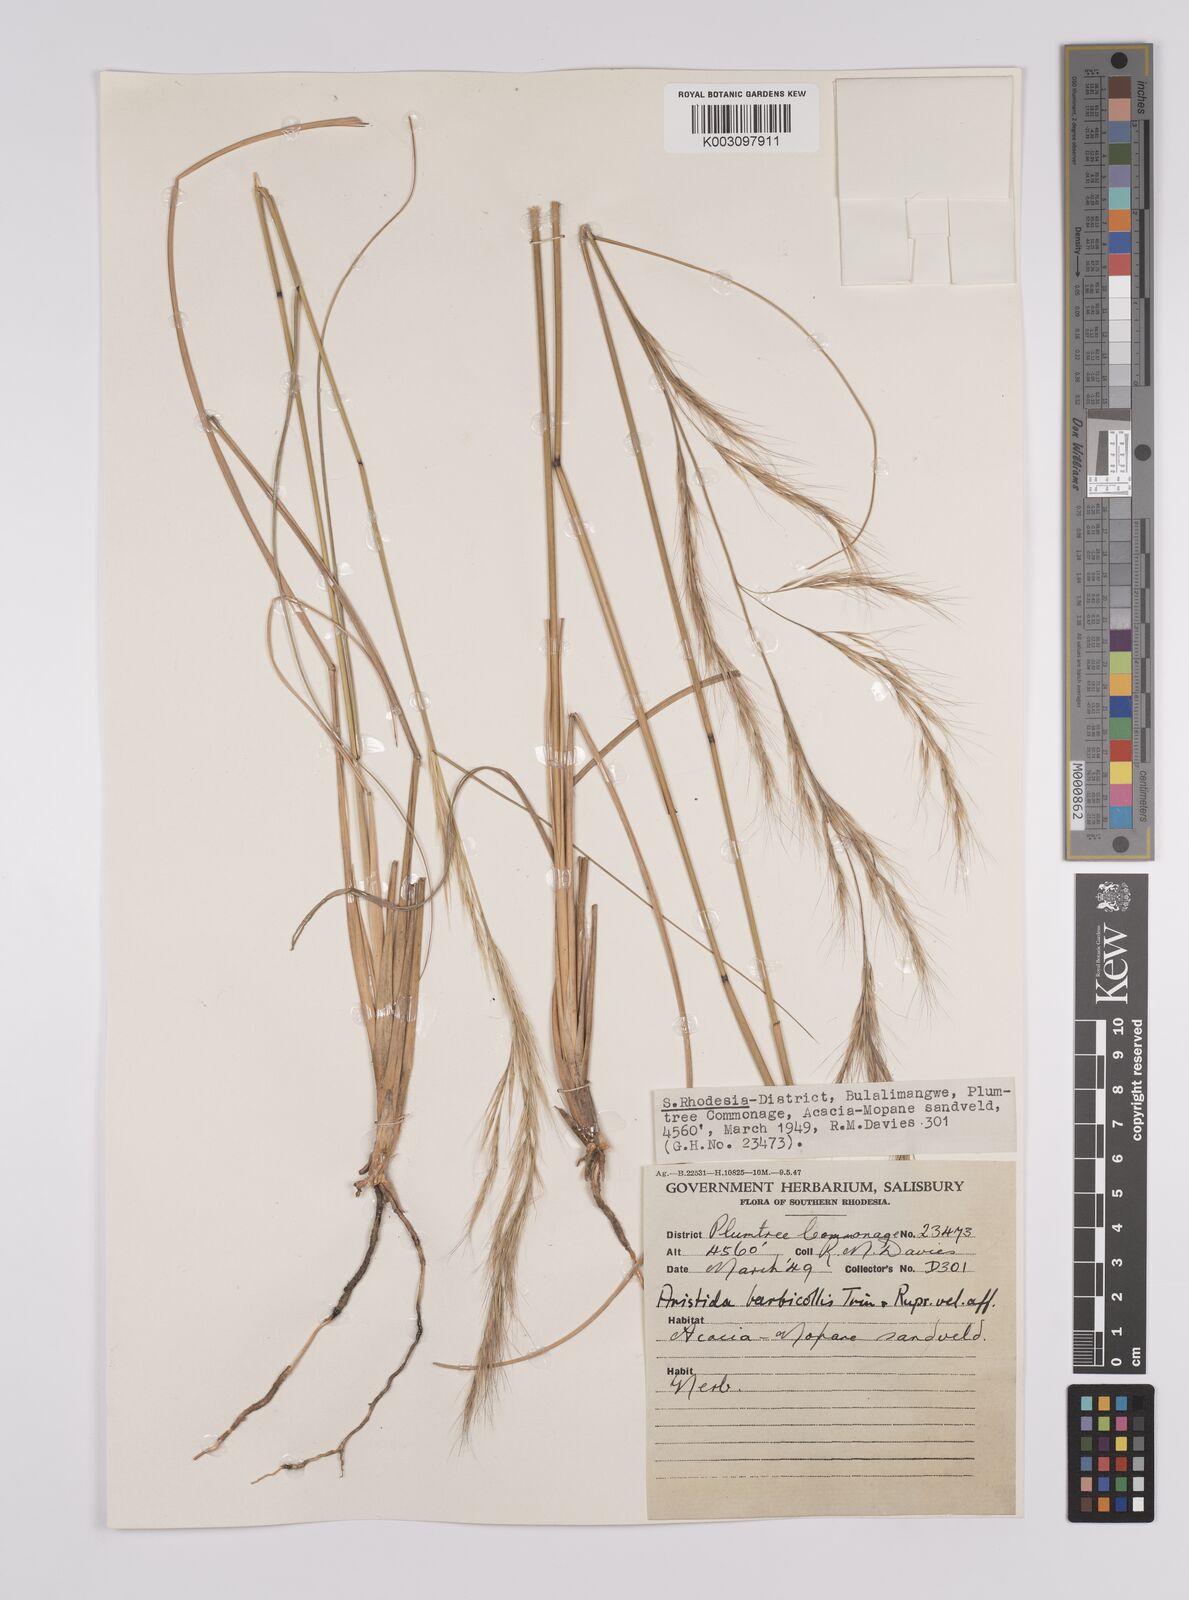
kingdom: Plantae
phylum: Tracheophyta
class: Liliopsida
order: Poales
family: Poaceae
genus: Aristida
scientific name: Aristida pilgeri
